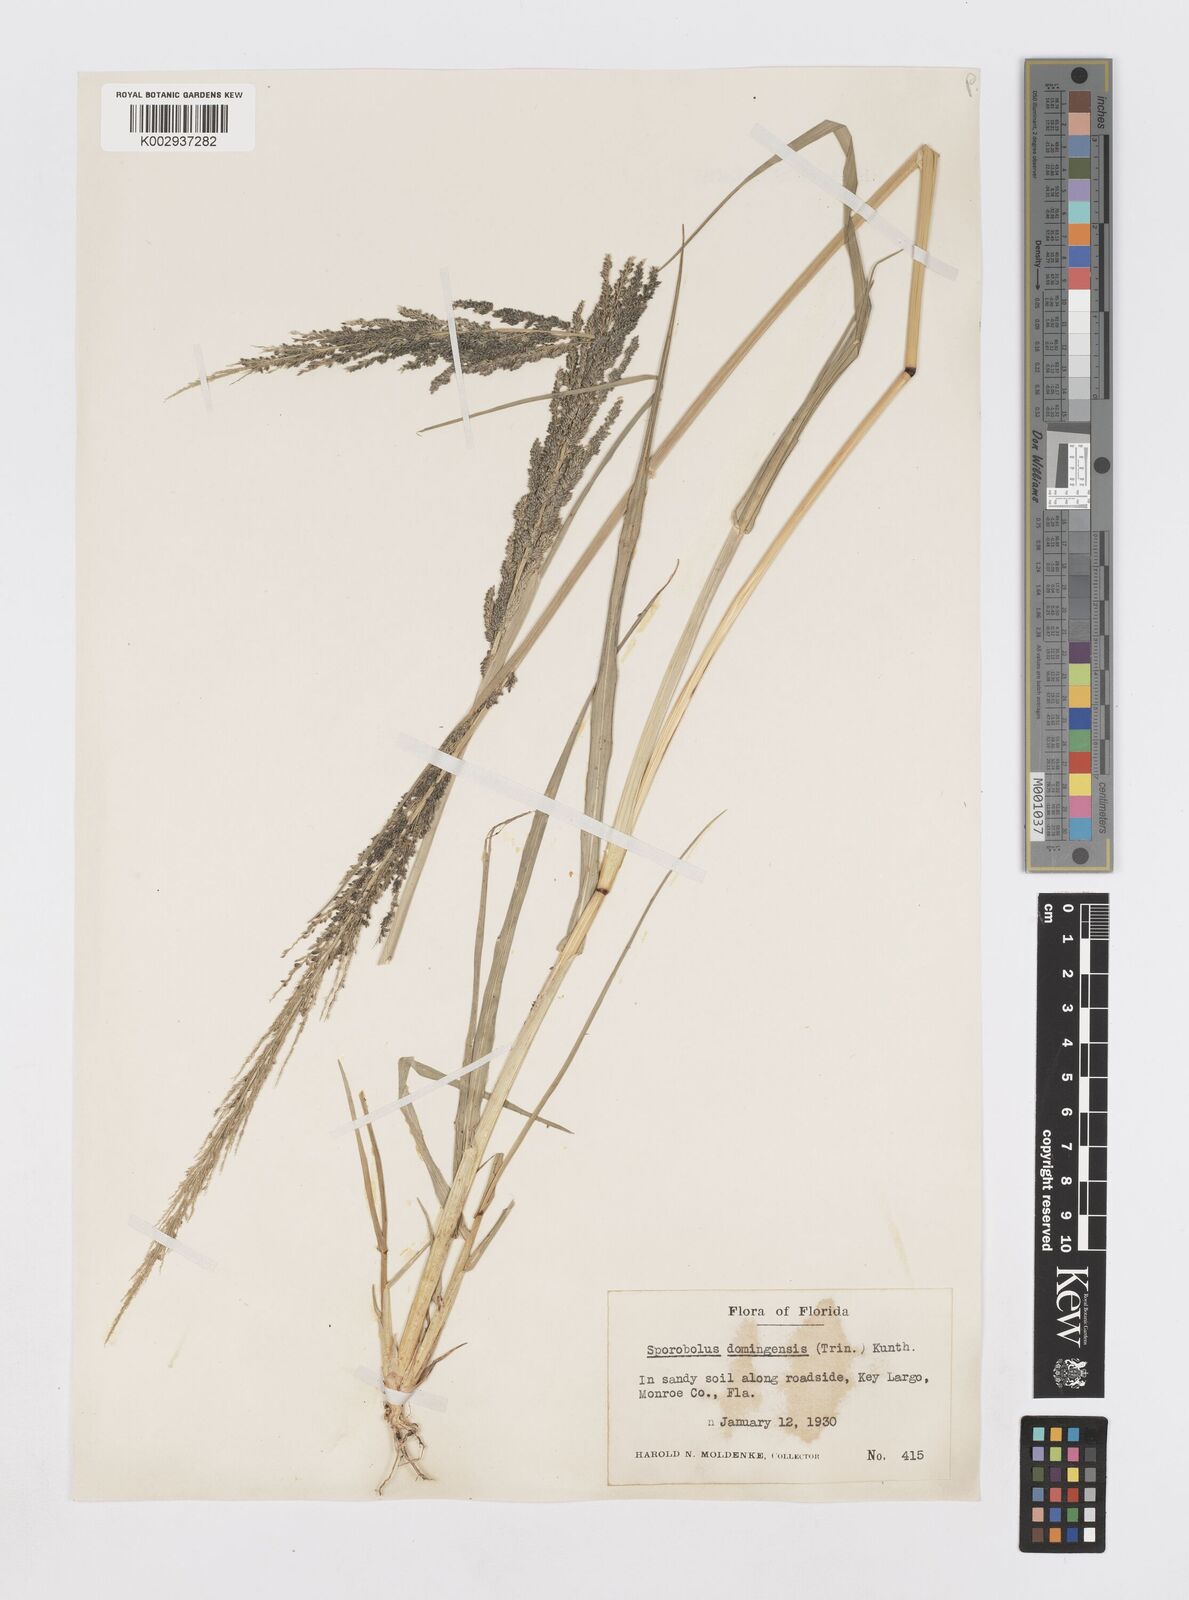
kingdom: Plantae
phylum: Tracheophyta
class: Liliopsida
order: Poales
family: Poaceae
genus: Sporobolus
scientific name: Sporobolus domingensis
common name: Coral dropseed
